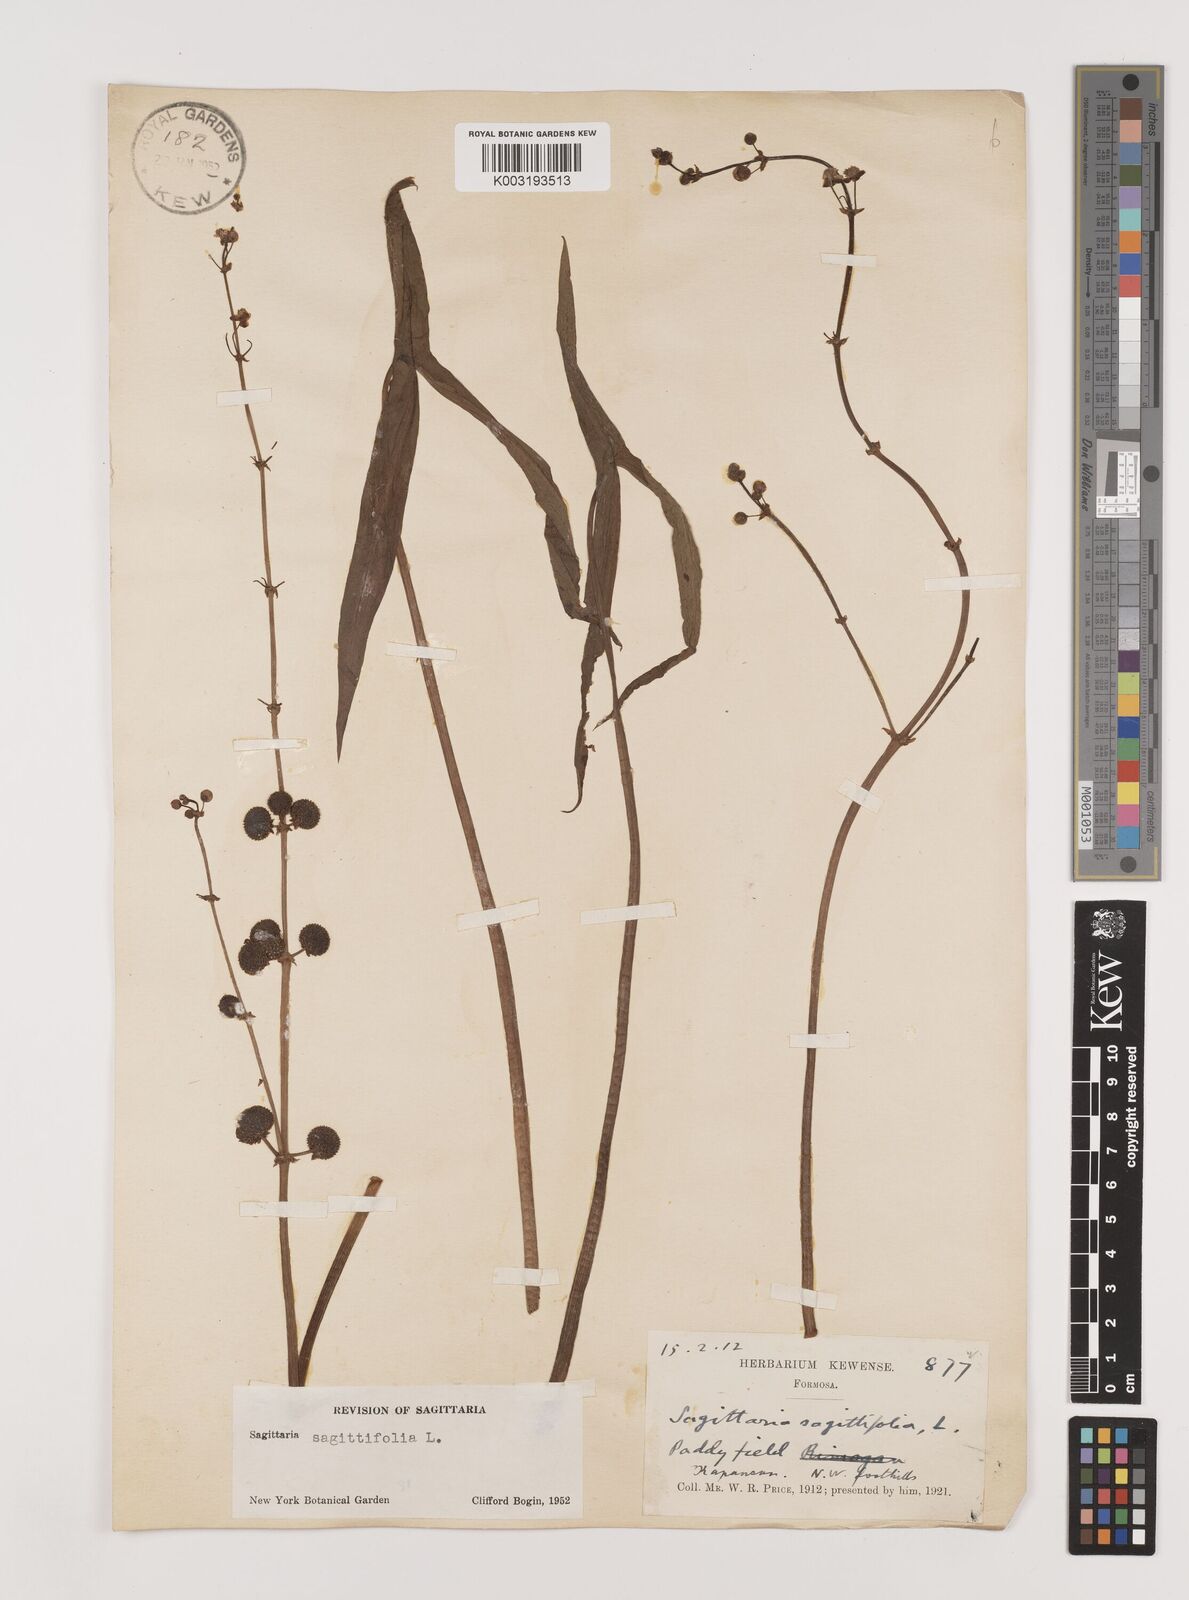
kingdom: Plantae
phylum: Tracheophyta
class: Liliopsida
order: Alismatales
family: Alismataceae
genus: Sagittaria
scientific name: Sagittaria sagittifolia
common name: Arrowhead
